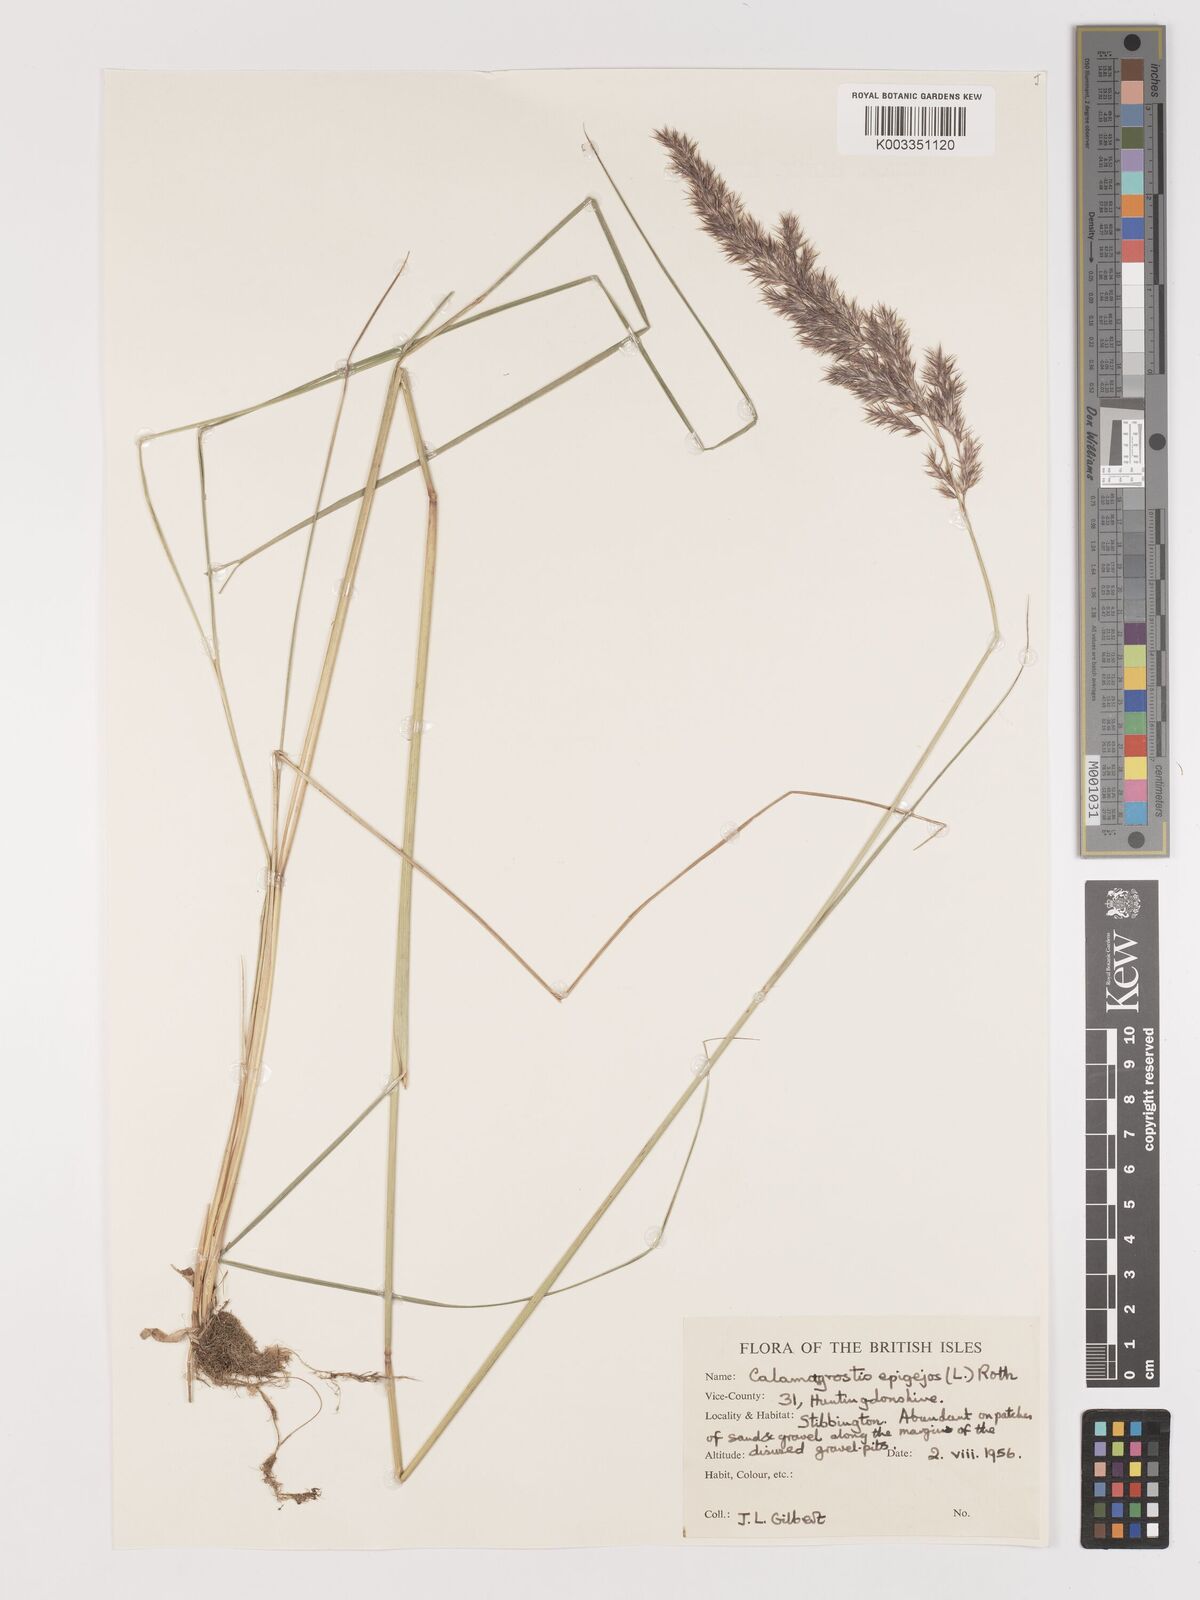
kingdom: Plantae
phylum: Tracheophyta
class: Liliopsida
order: Poales
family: Poaceae
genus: Calamagrostis
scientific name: Calamagrostis
